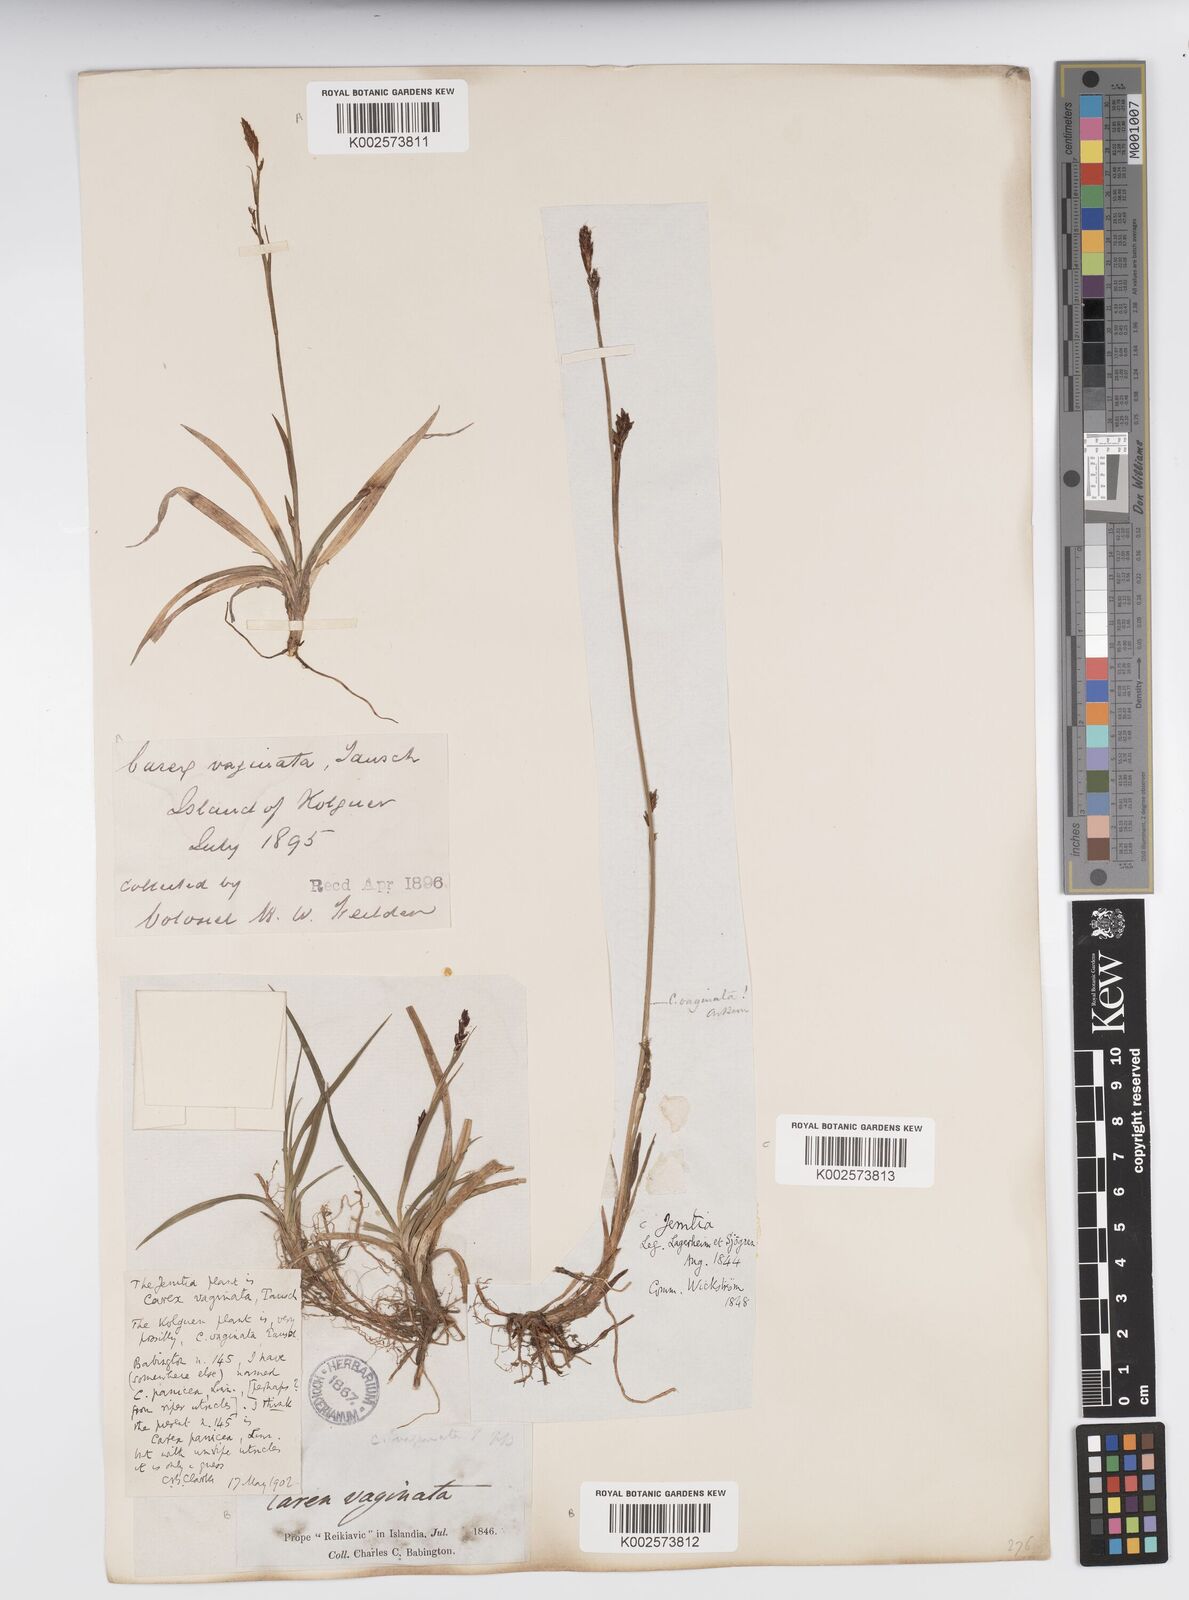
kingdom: Plantae
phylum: Tracheophyta
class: Liliopsida
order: Poales
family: Cyperaceae
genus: Carex
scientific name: Carex vaginata
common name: Sheathed sedge
